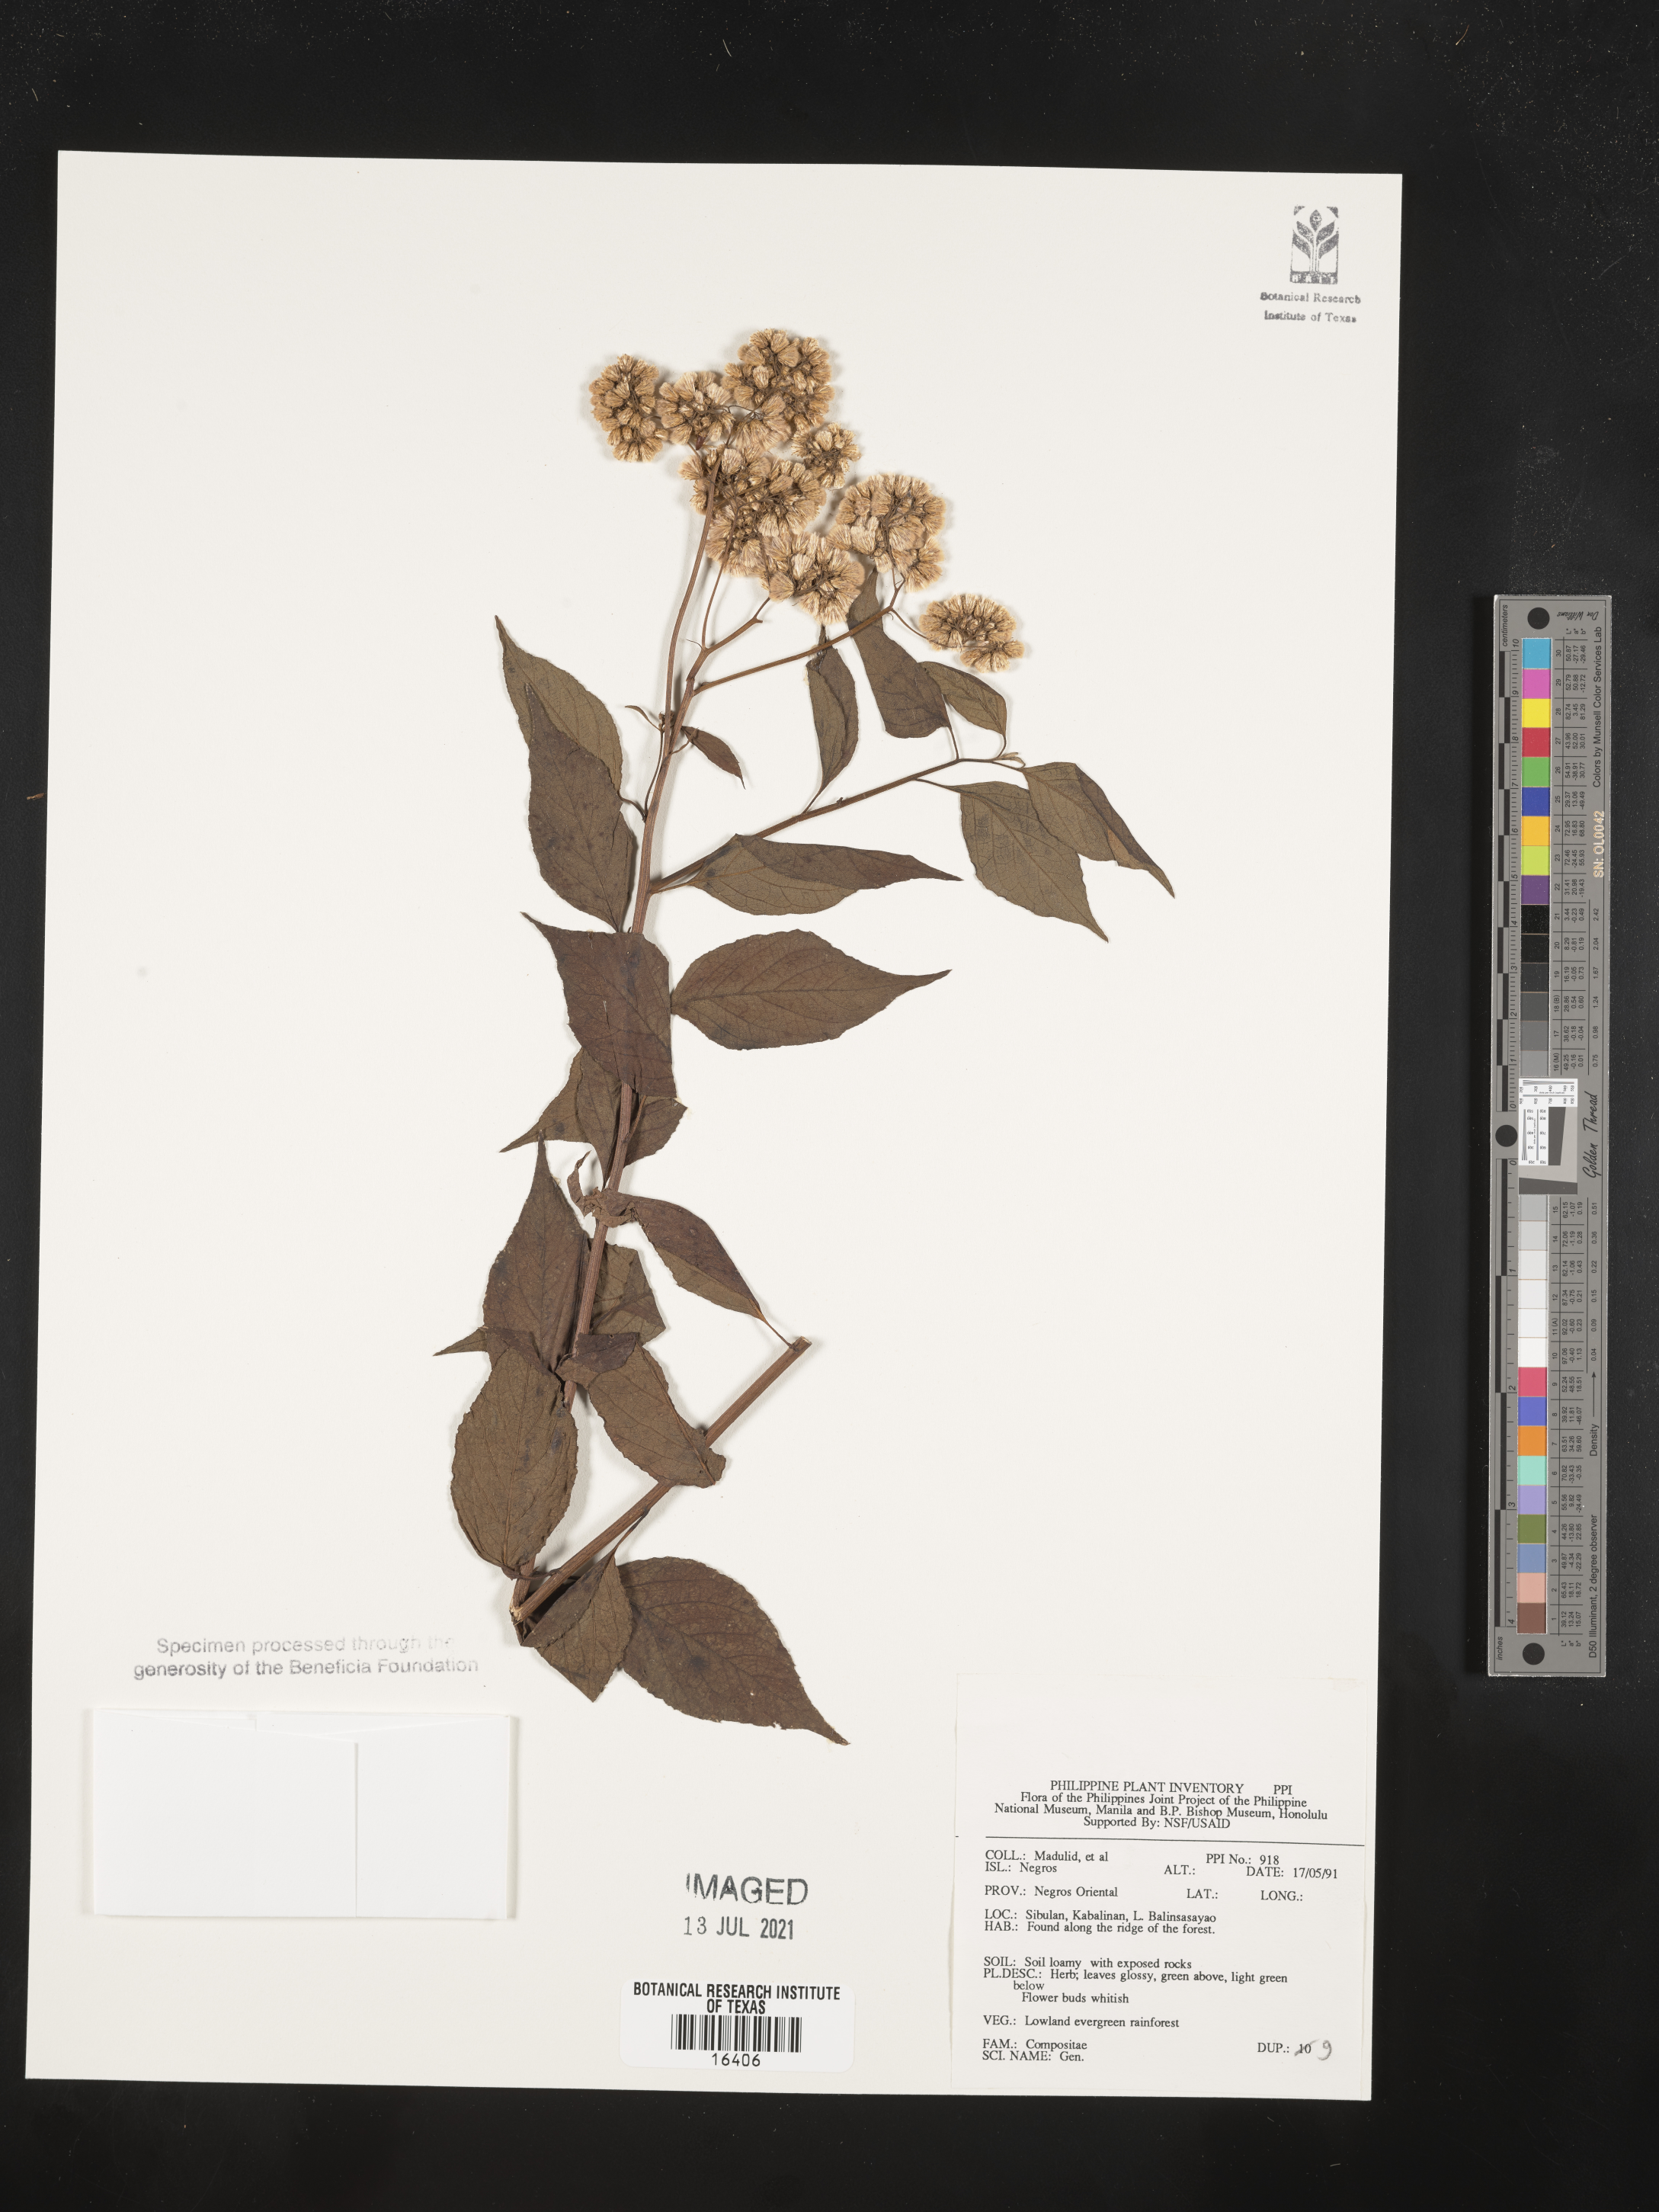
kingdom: Plantae
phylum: Tracheophyta
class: Magnoliopsida
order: Asterales
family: Asteraceae
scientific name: Asteraceae
